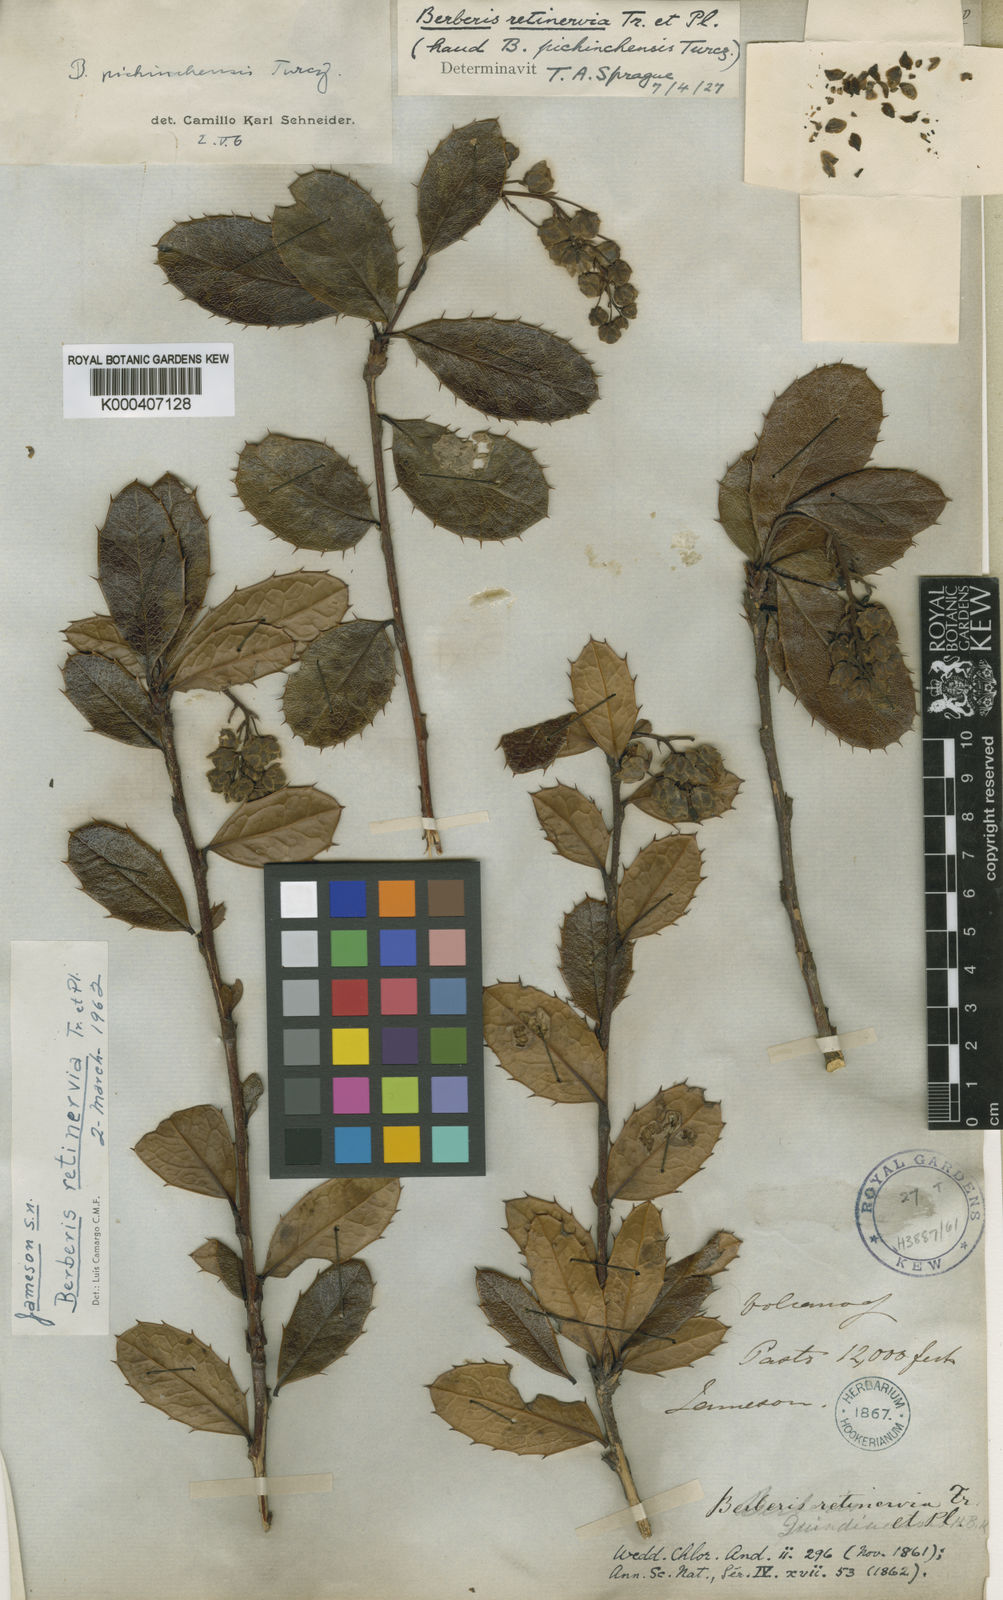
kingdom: Plantae
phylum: Tracheophyta
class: Magnoliopsida
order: Ranunculales
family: Berberidaceae
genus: Berberis
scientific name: Berberis
